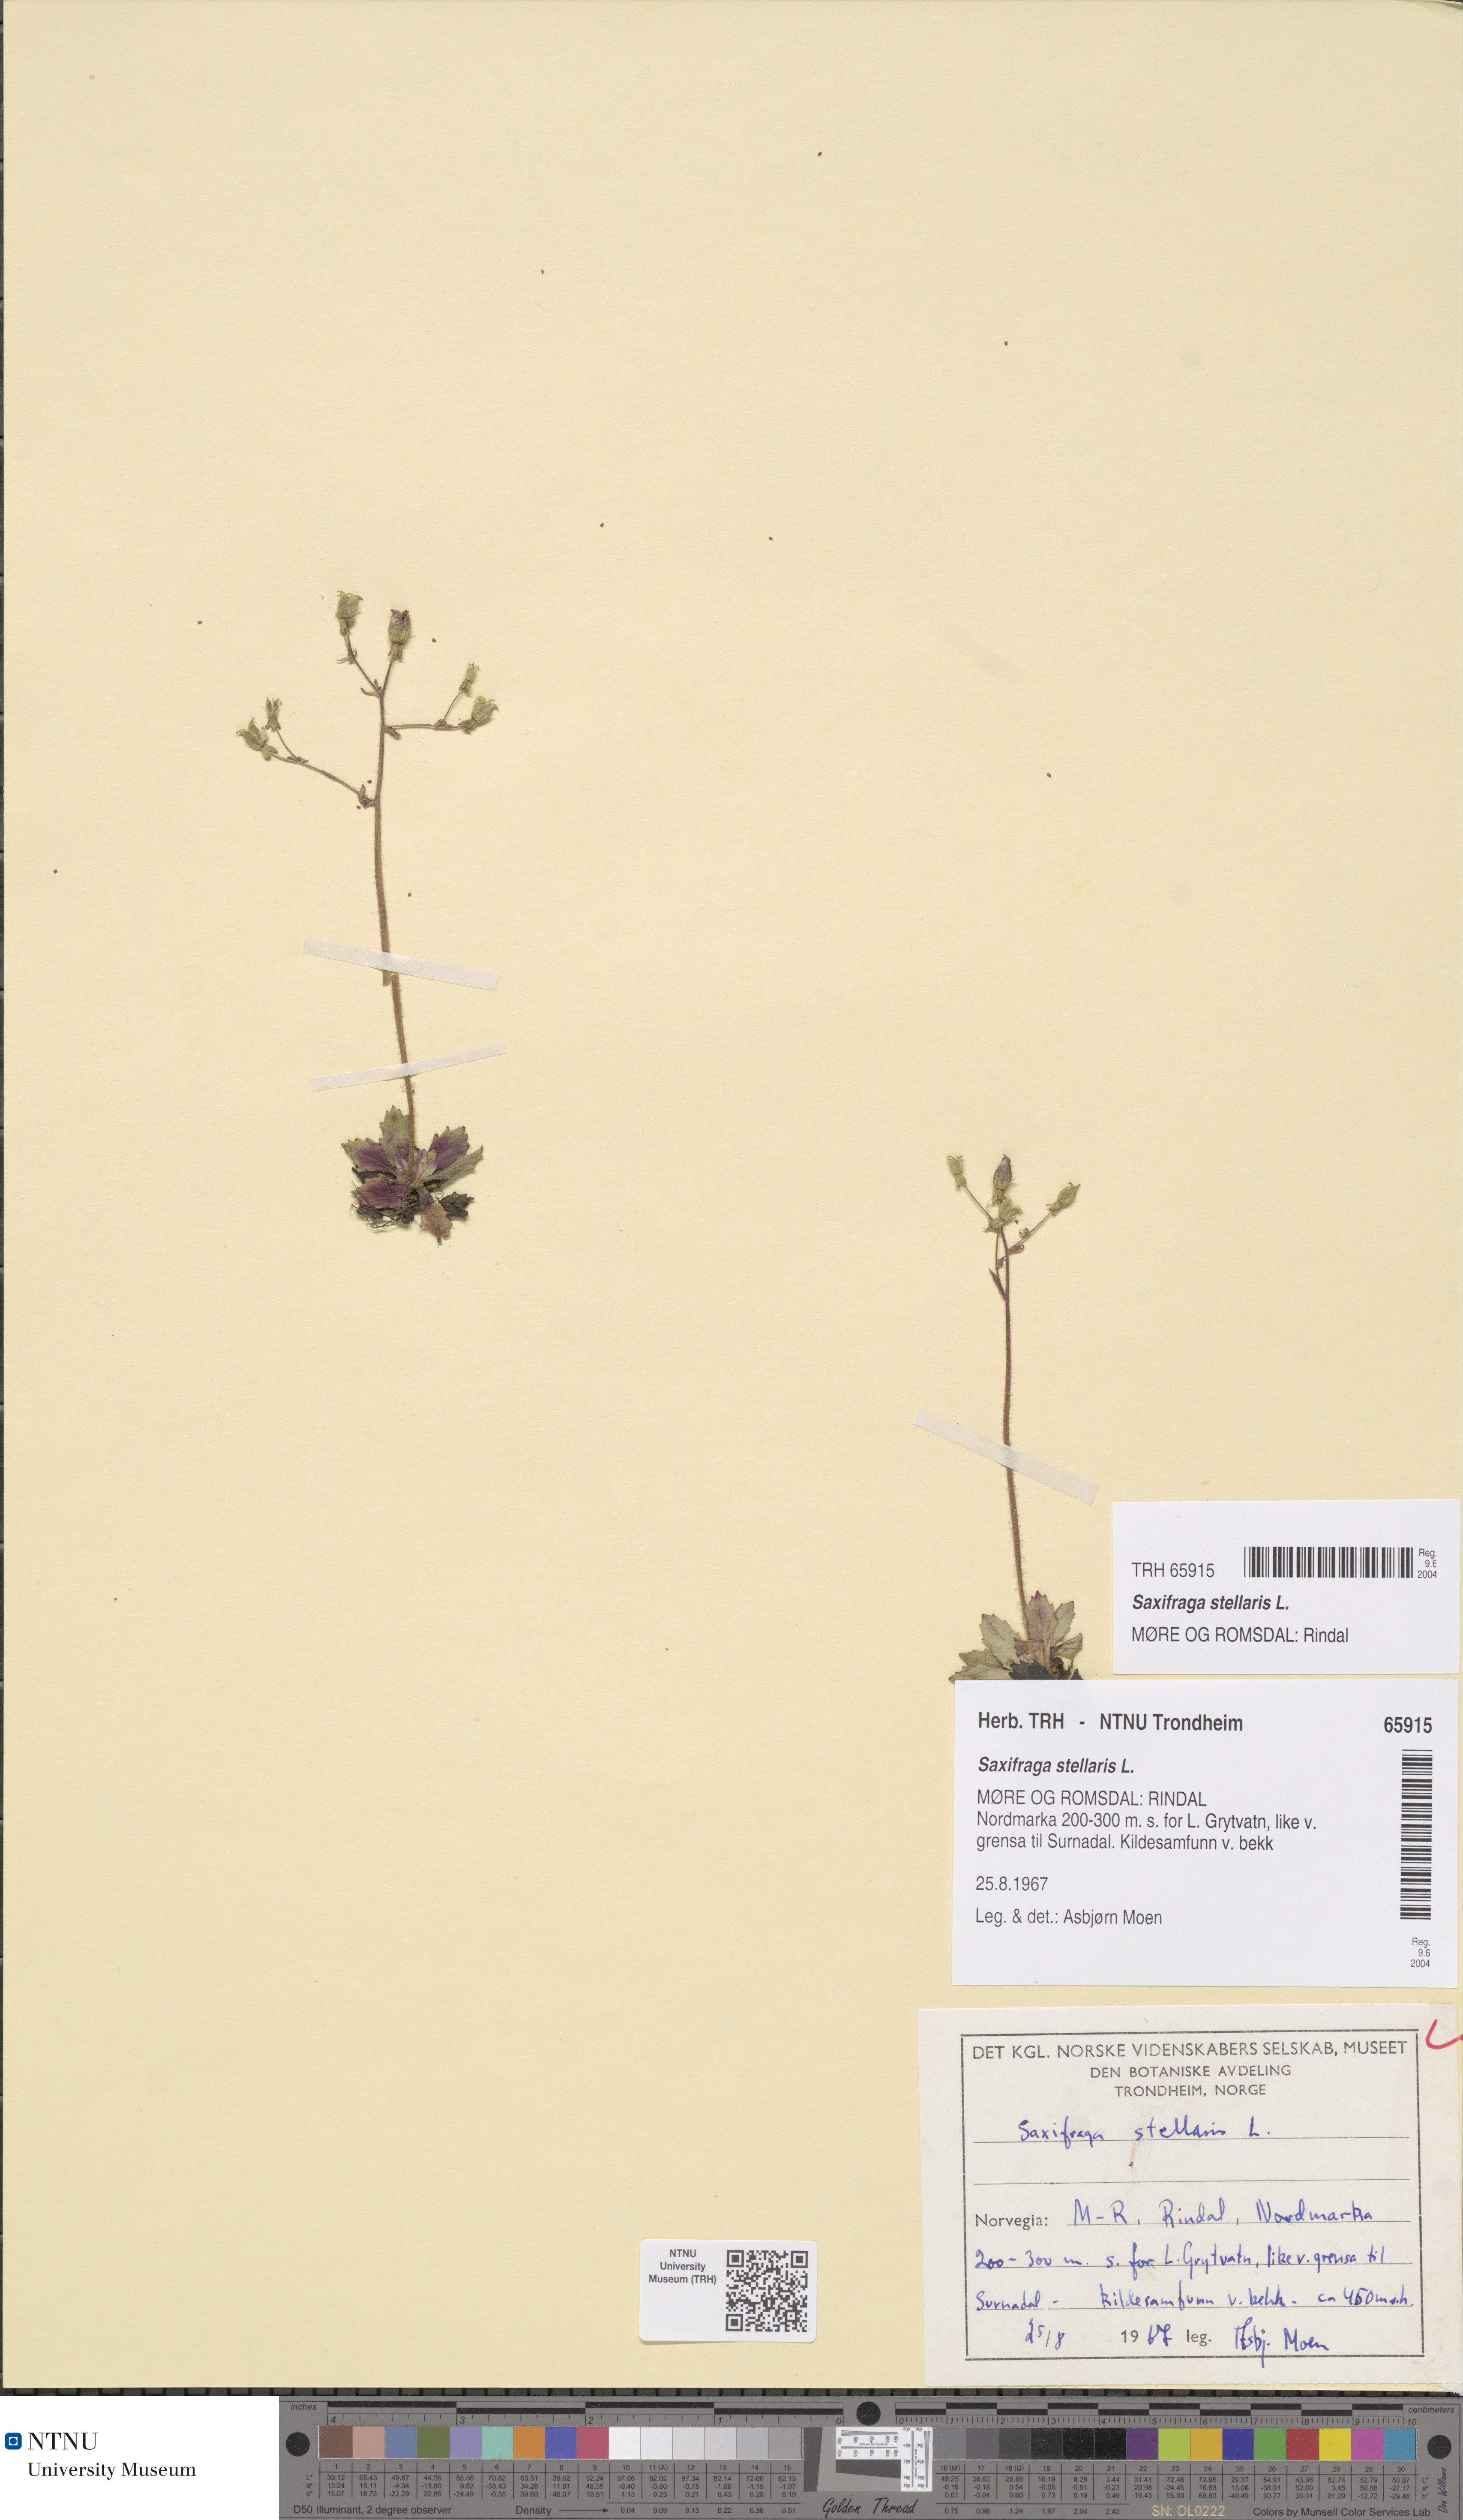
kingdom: Plantae
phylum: Tracheophyta
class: Magnoliopsida
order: Saxifragales
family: Saxifragaceae
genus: Micranthes
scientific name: Micranthes stellaris
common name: Starry saxifrage
